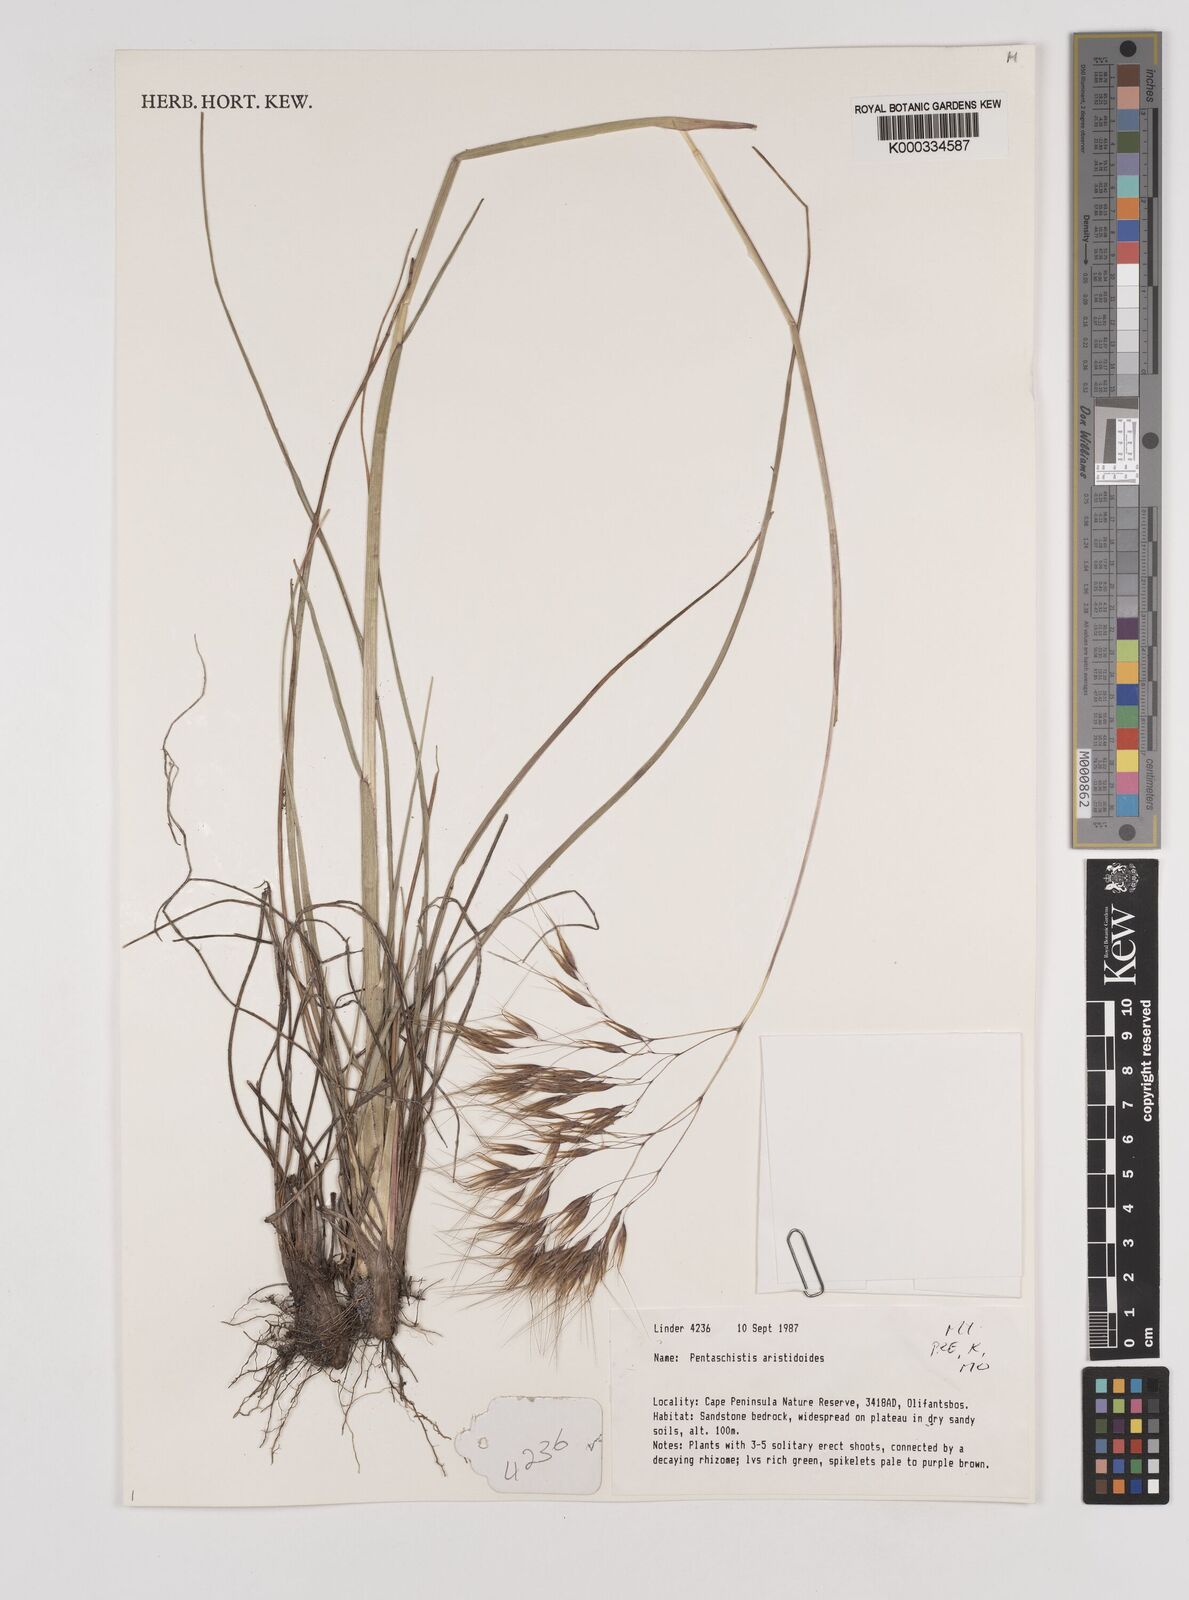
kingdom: Plantae
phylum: Tracheophyta
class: Liliopsida
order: Poales
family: Poaceae
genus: Pentameris
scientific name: Pentameris aristidoides
